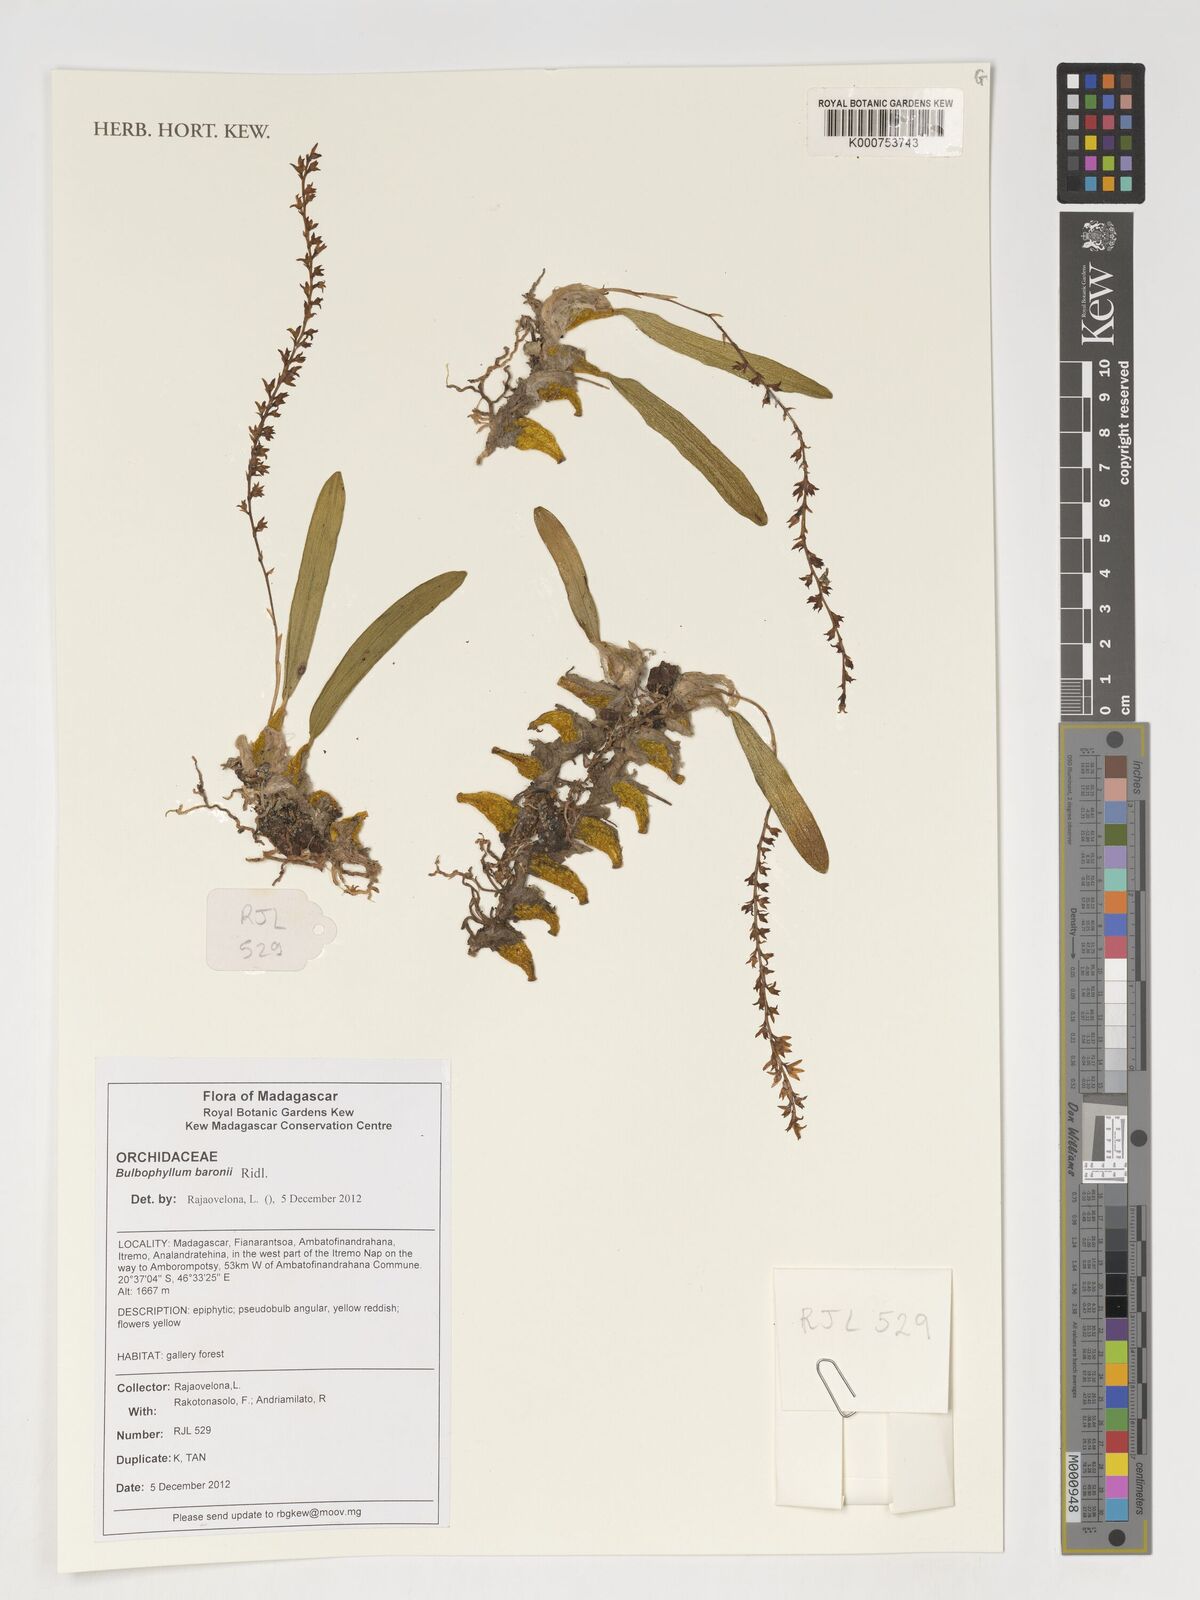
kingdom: Plantae
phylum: Tracheophyta
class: Liliopsida
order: Asparagales
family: Orchidaceae
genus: Bulbophyllum
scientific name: Bulbophyllum baronii
